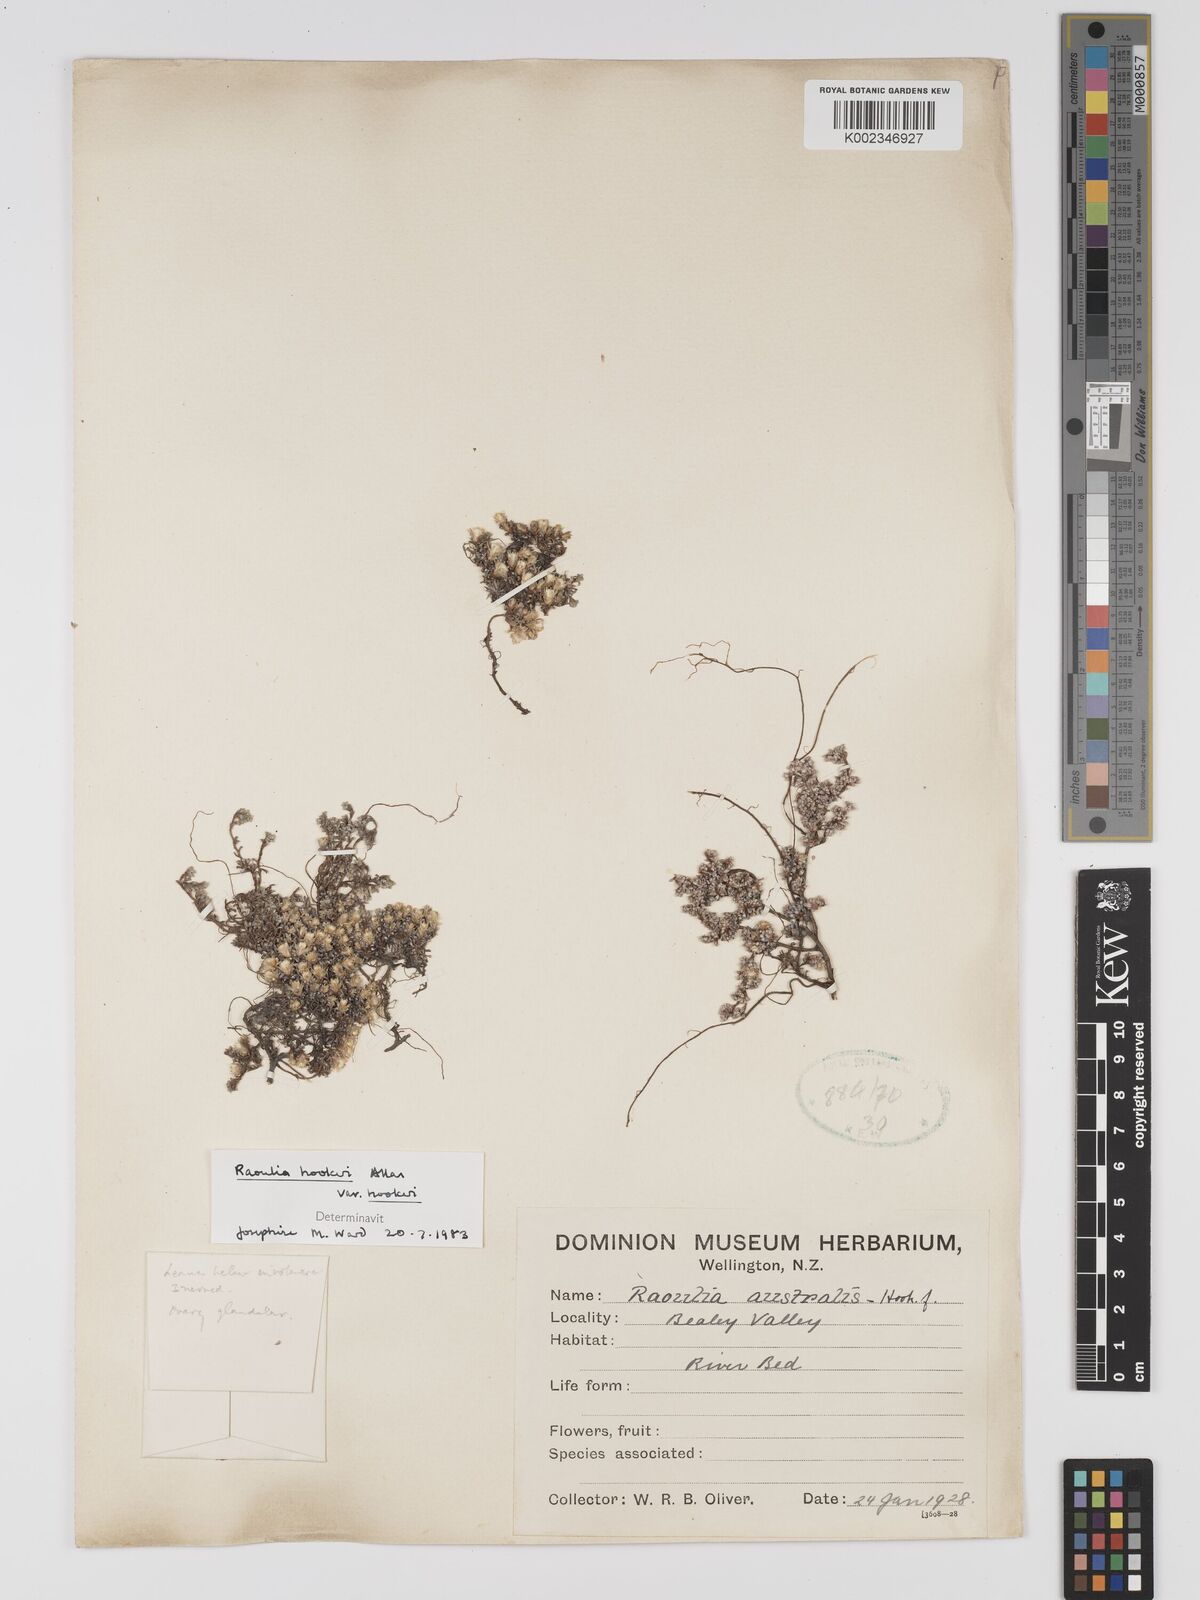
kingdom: Plantae
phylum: Tracheophyta
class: Magnoliopsida
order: Asterales
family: Asteraceae
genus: Raoulia
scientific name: Raoulia hookeri
